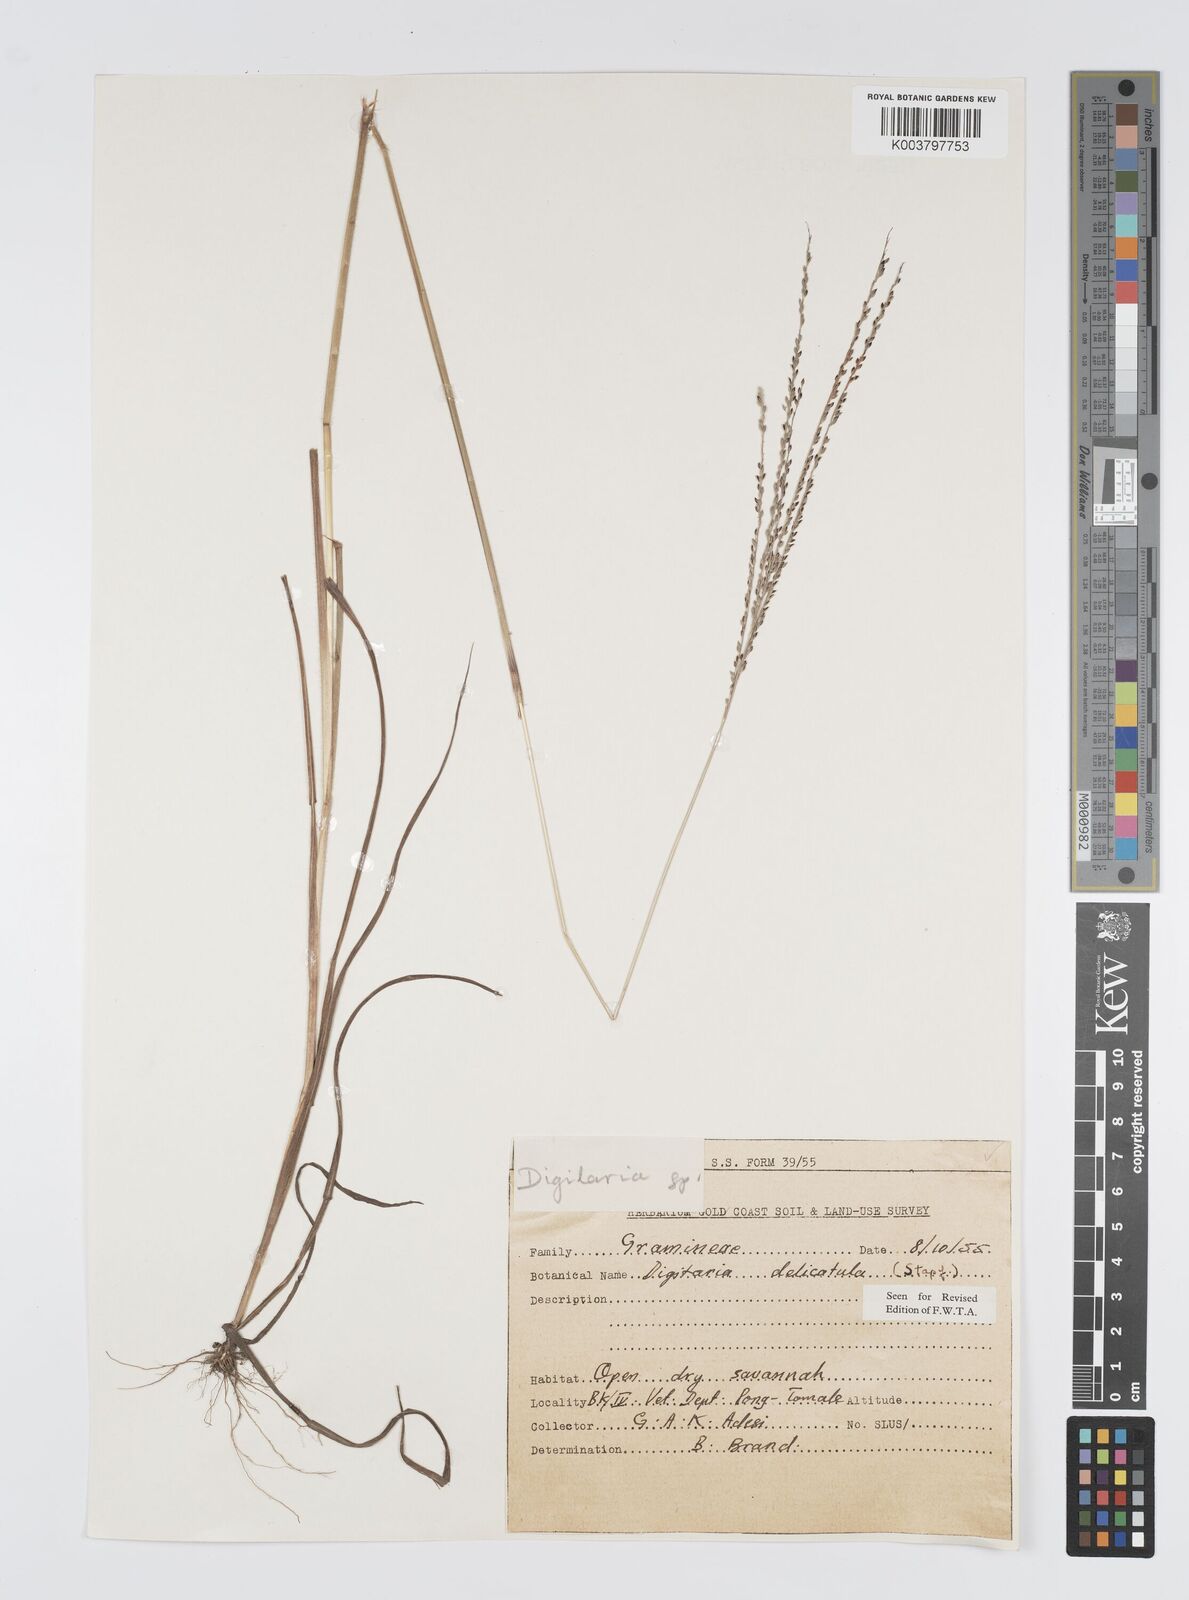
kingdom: Plantae
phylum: Tracheophyta
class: Liliopsida
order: Poales
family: Poaceae
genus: Digitaria
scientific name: Digitaria delicatula
